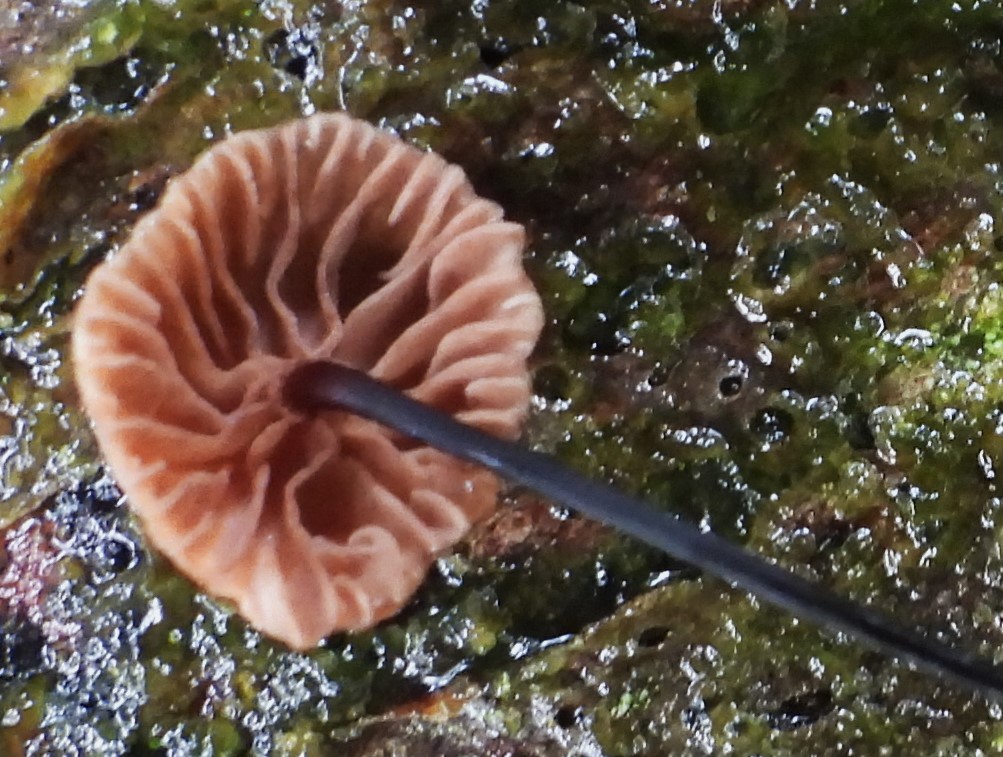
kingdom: Fungi
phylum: Basidiomycota
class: Agaricomycetes
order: Agaricales
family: Omphalotaceae
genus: Gymnopus
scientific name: Gymnopus androsaceus
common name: trådstokket fladhat
